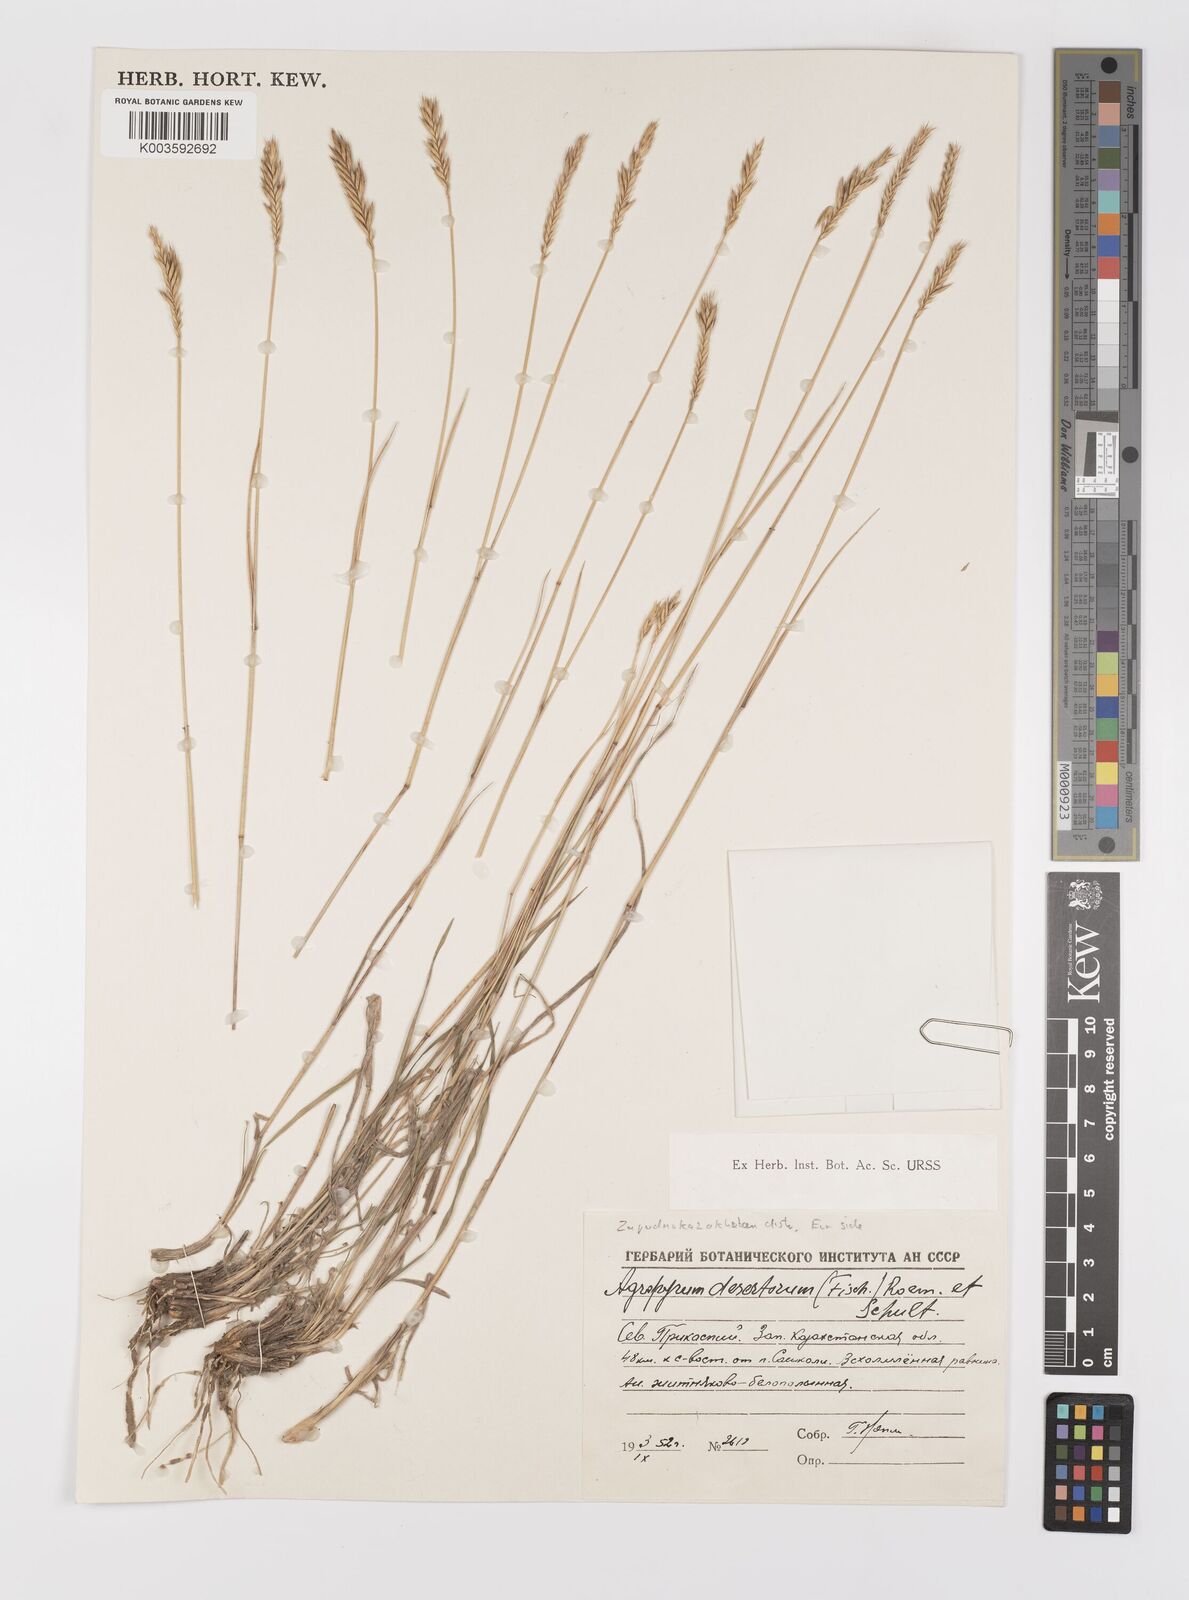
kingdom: Plantae
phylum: Tracheophyta
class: Liliopsida
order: Poales
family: Poaceae
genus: Agropyron
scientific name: Agropyron desertorum
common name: Desert wheatgrass
